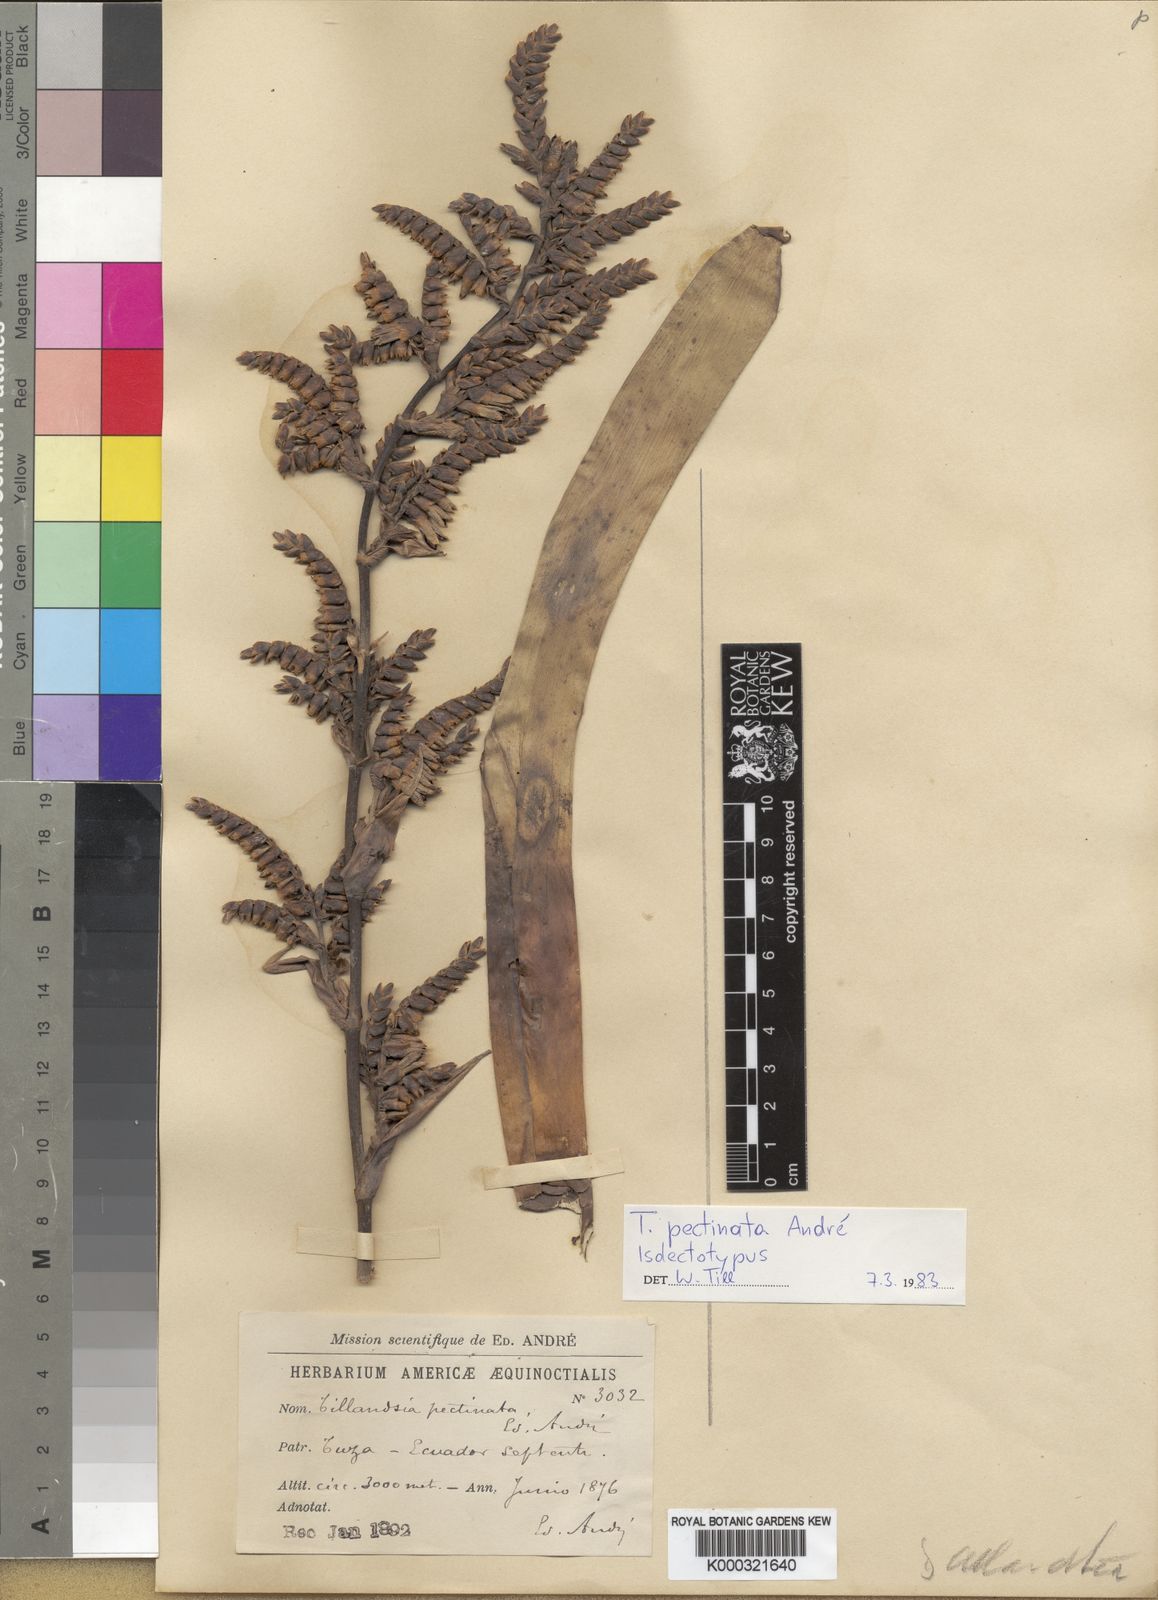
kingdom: Plantae
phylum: Tracheophyta
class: Liliopsida
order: Poales
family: Bromeliaceae
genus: Tillandsia
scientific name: Tillandsia
